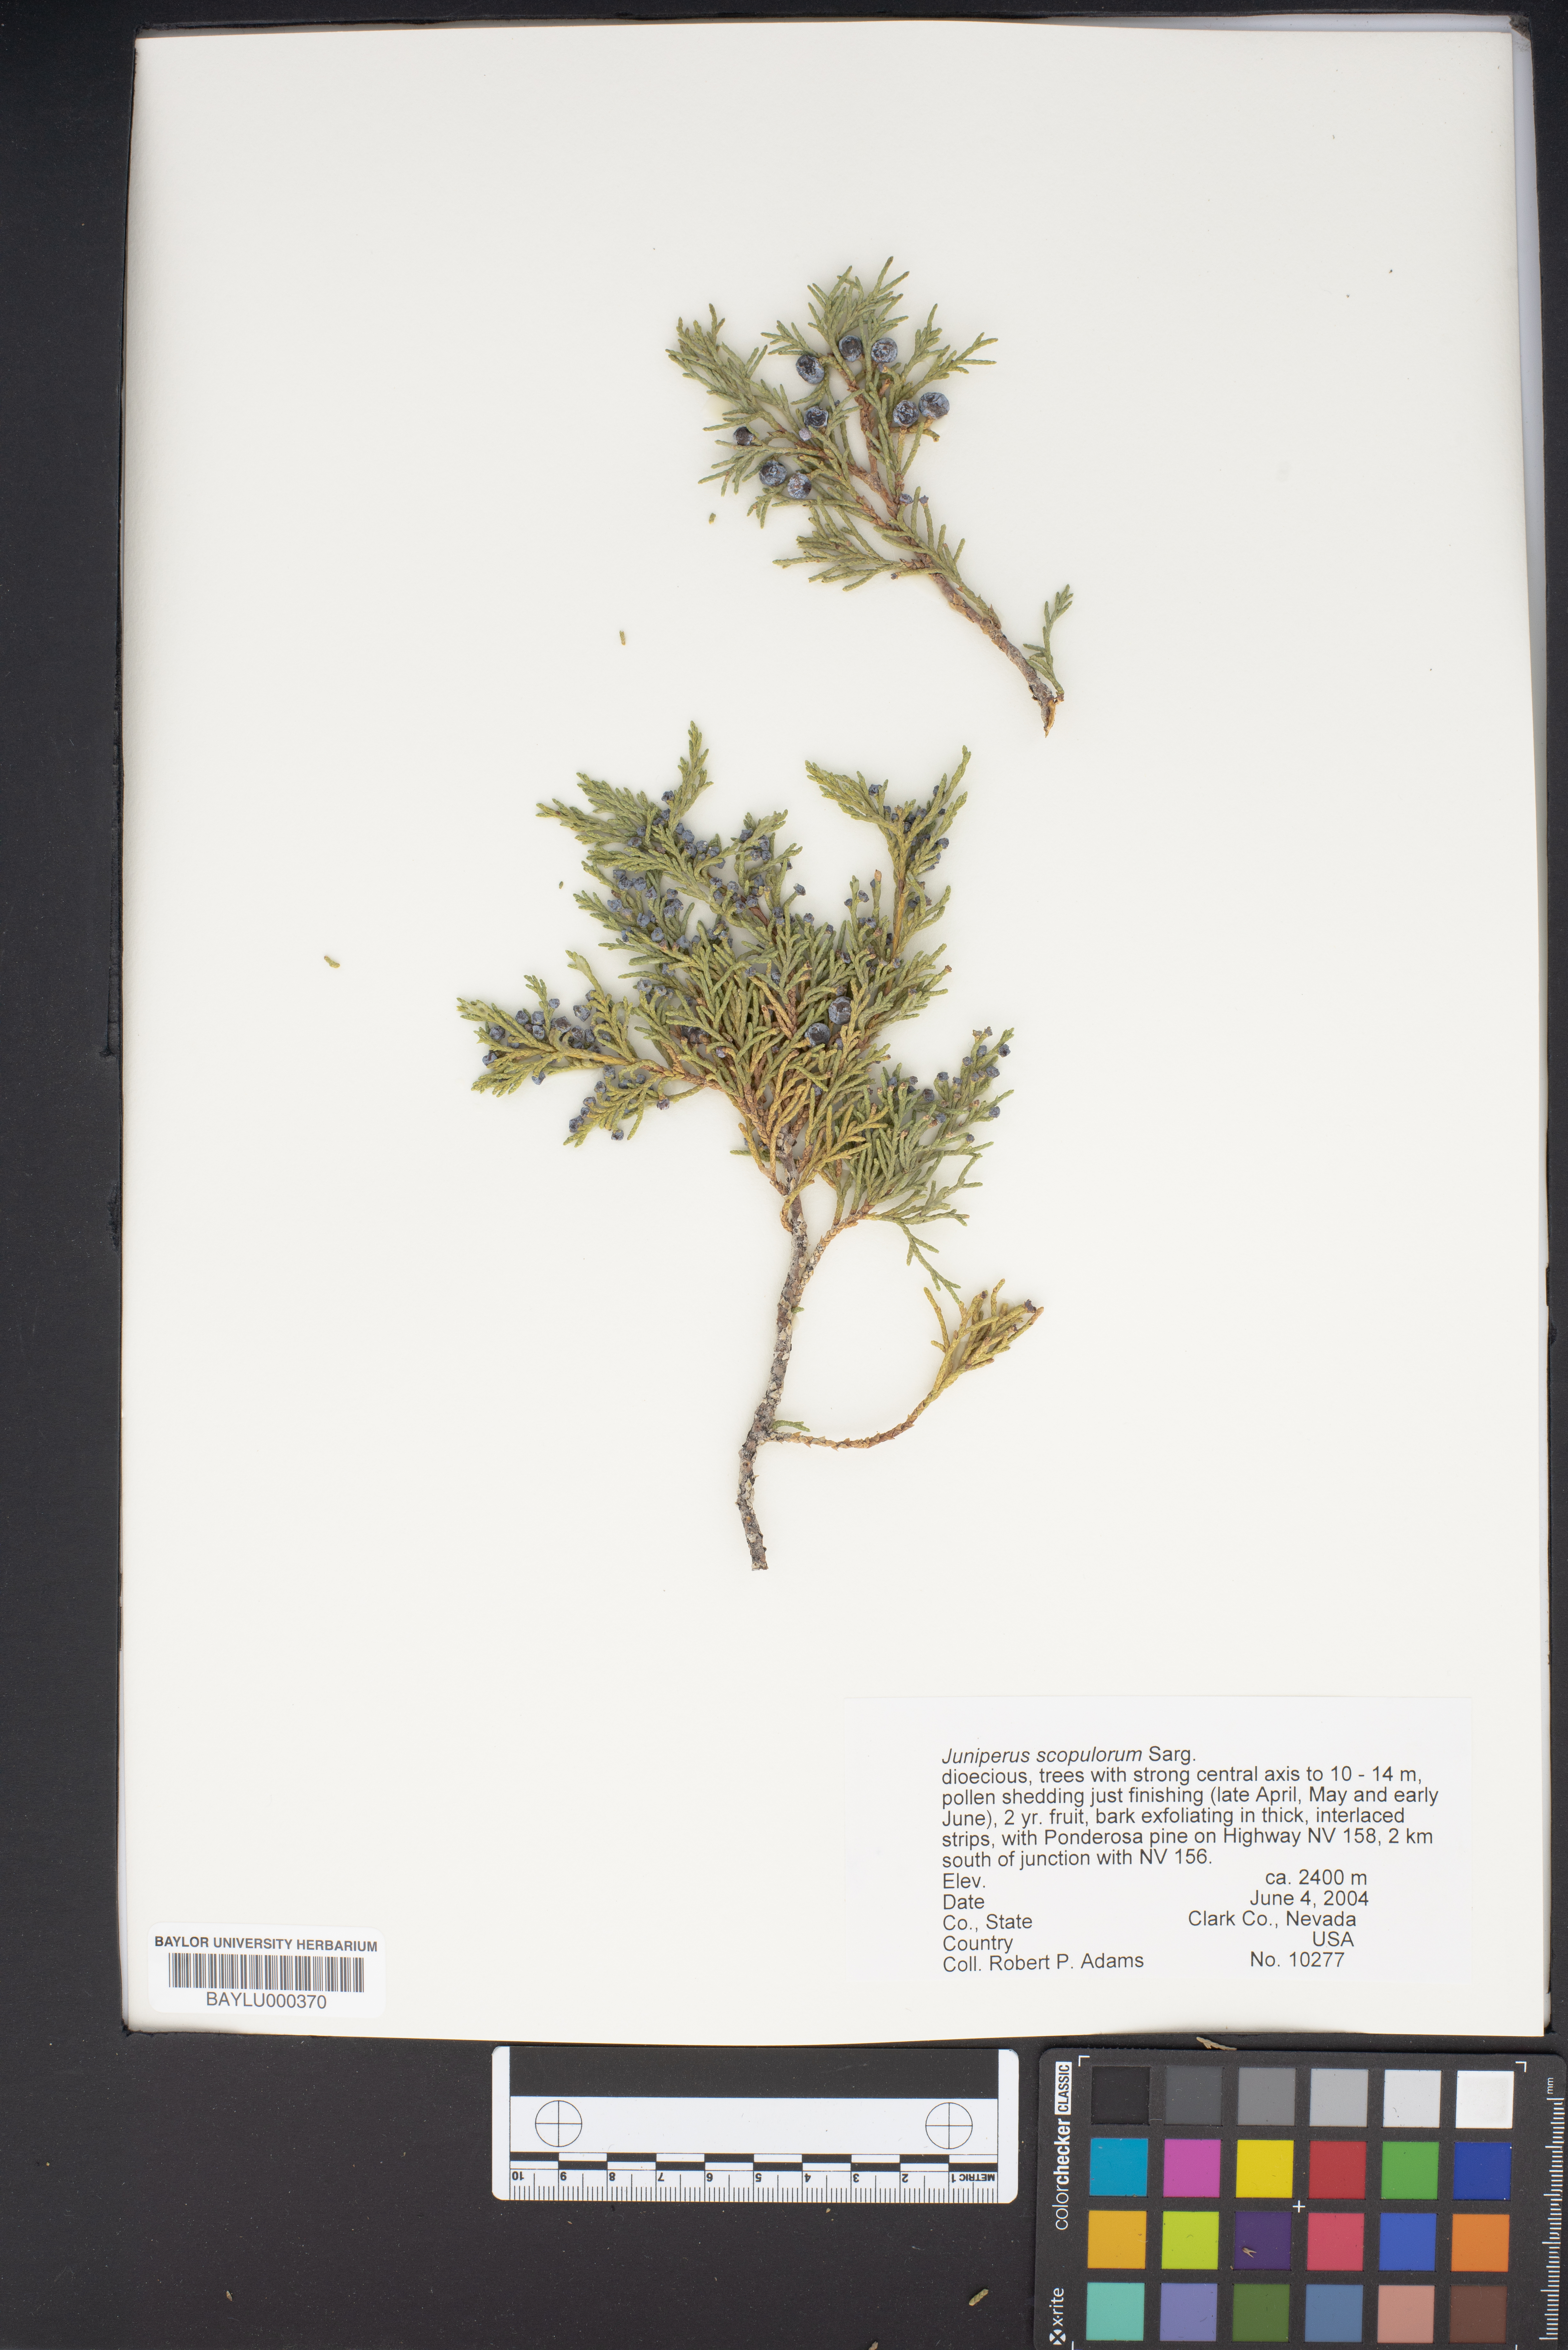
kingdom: Plantae
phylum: Tracheophyta
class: Pinopsida
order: Pinales
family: Cupressaceae
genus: Juniperus
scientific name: Juniperus scopulorum
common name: Rocky mountain juniper
